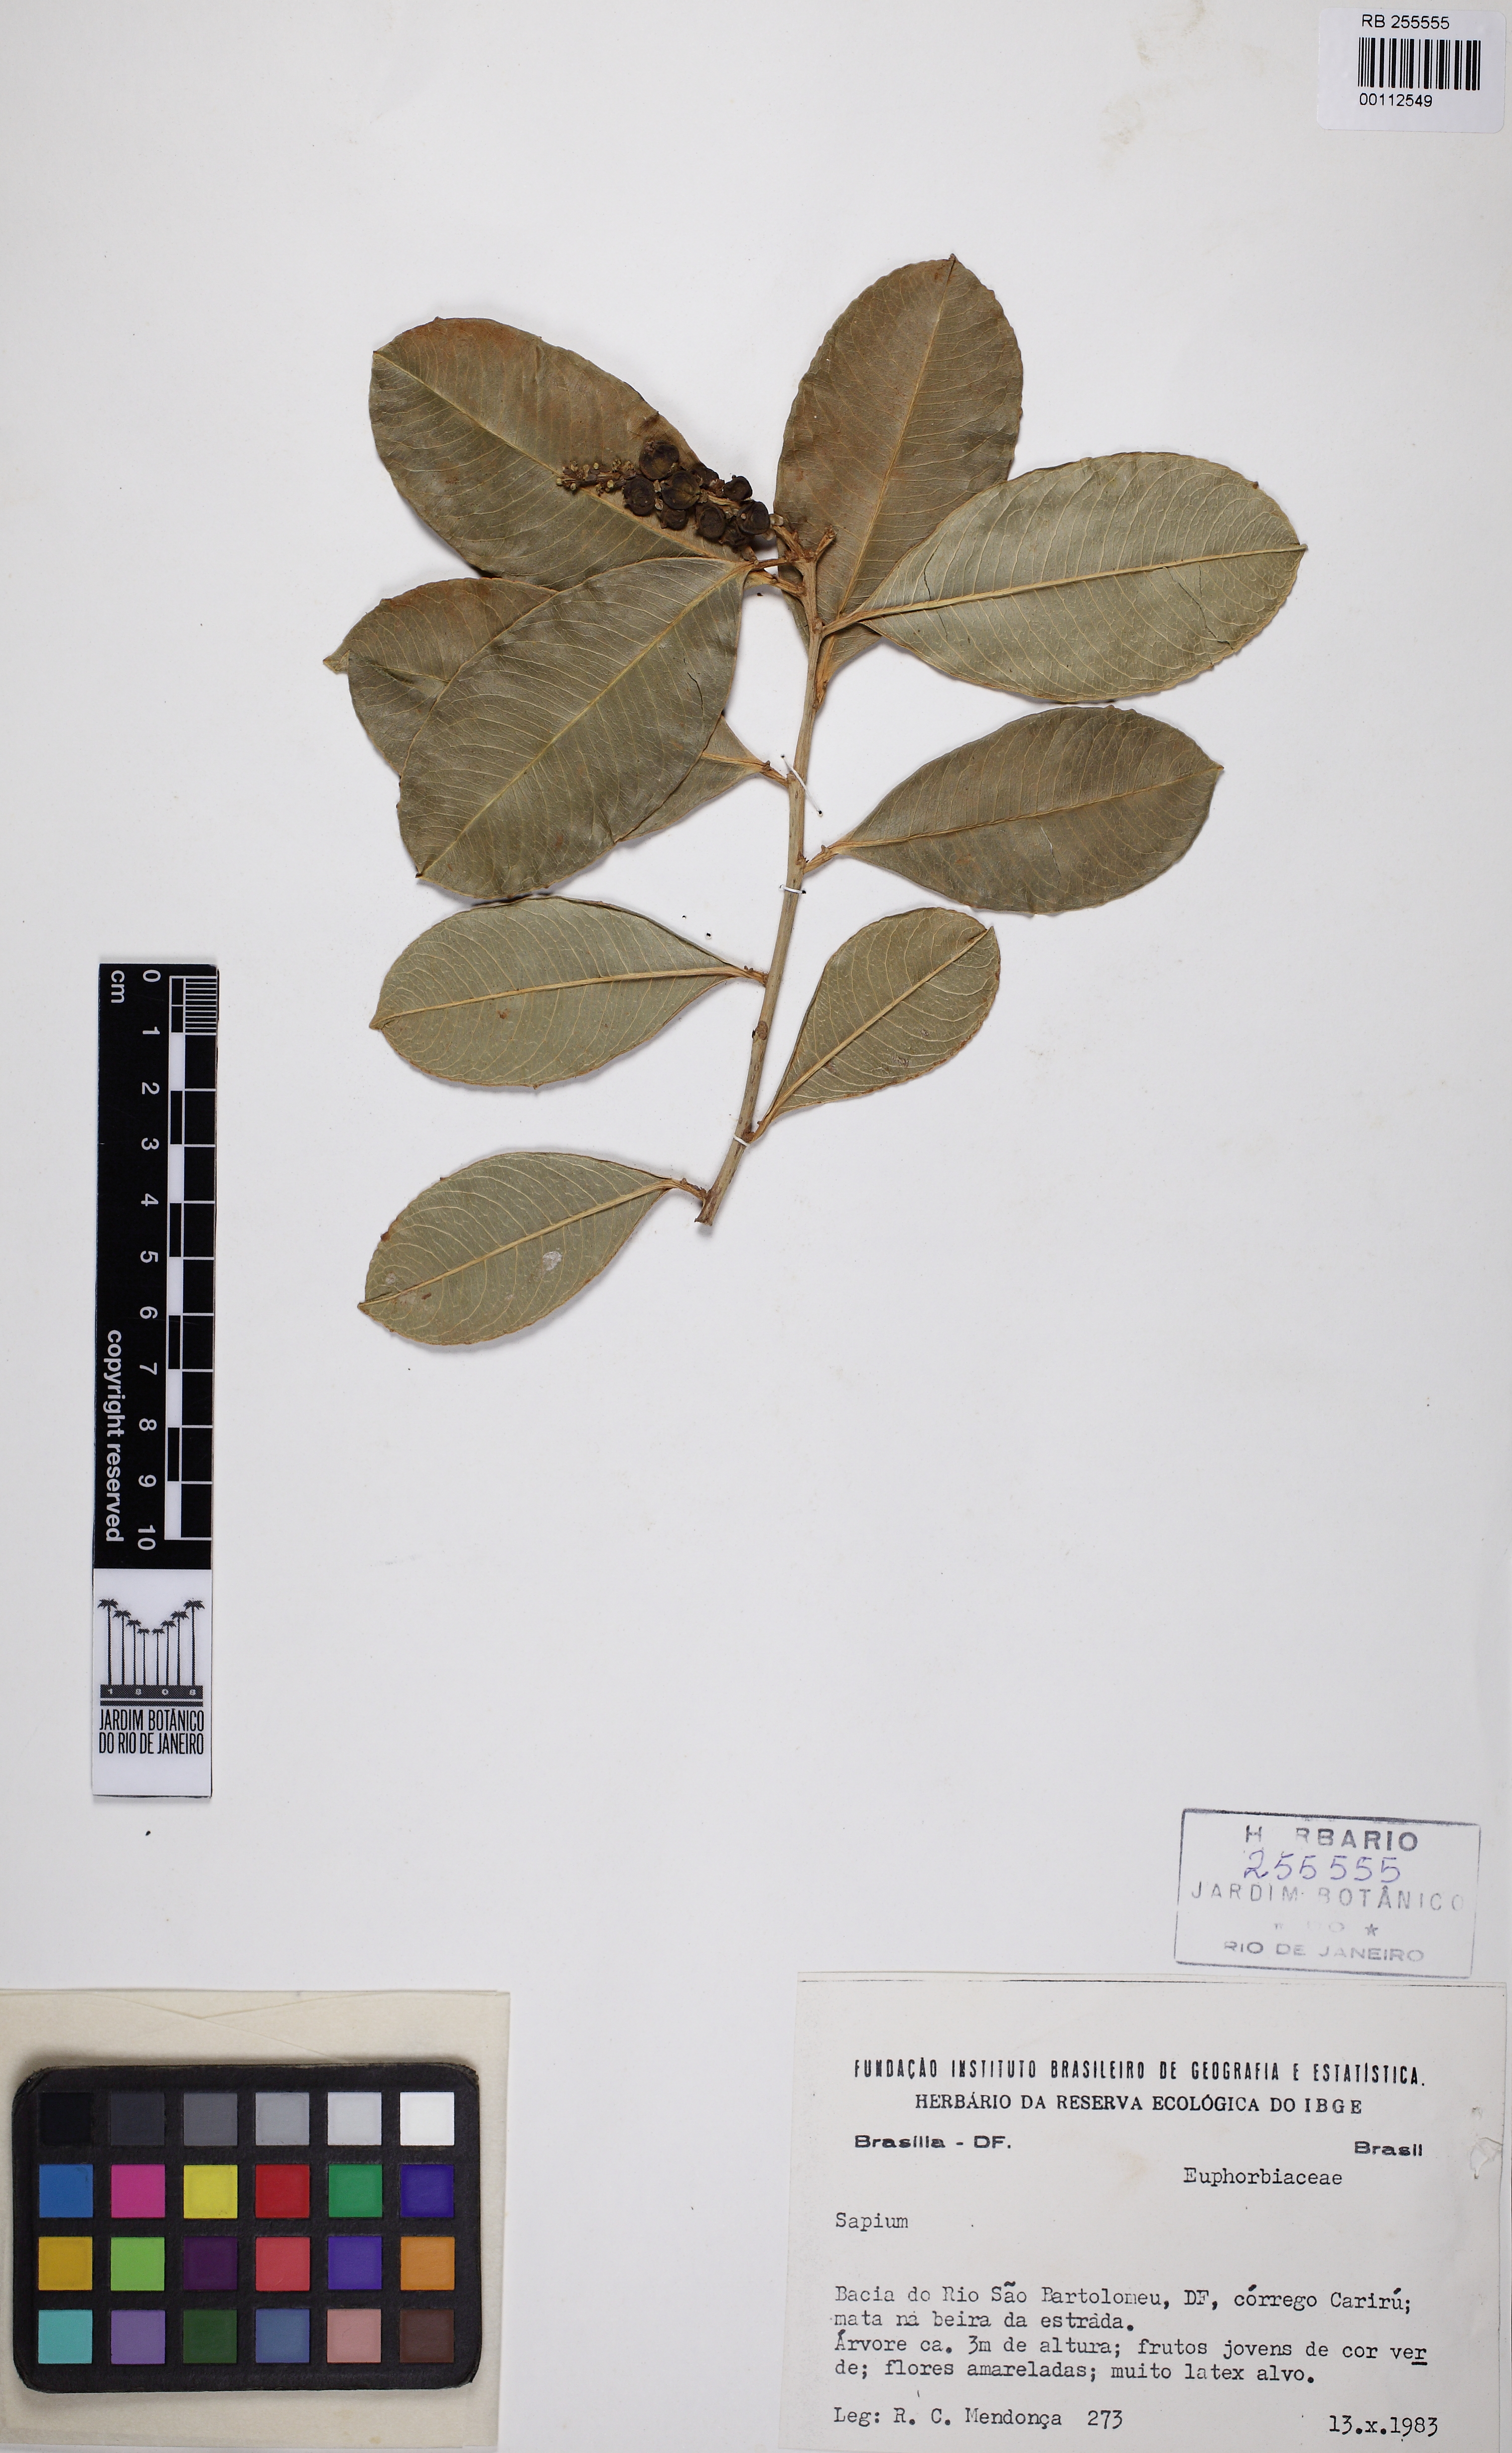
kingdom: Plantae
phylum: Tracheophyta
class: Magnoliopsida
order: Malpighiales
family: Euphorbiaceae
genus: Sapium
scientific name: Sapium obovatum
